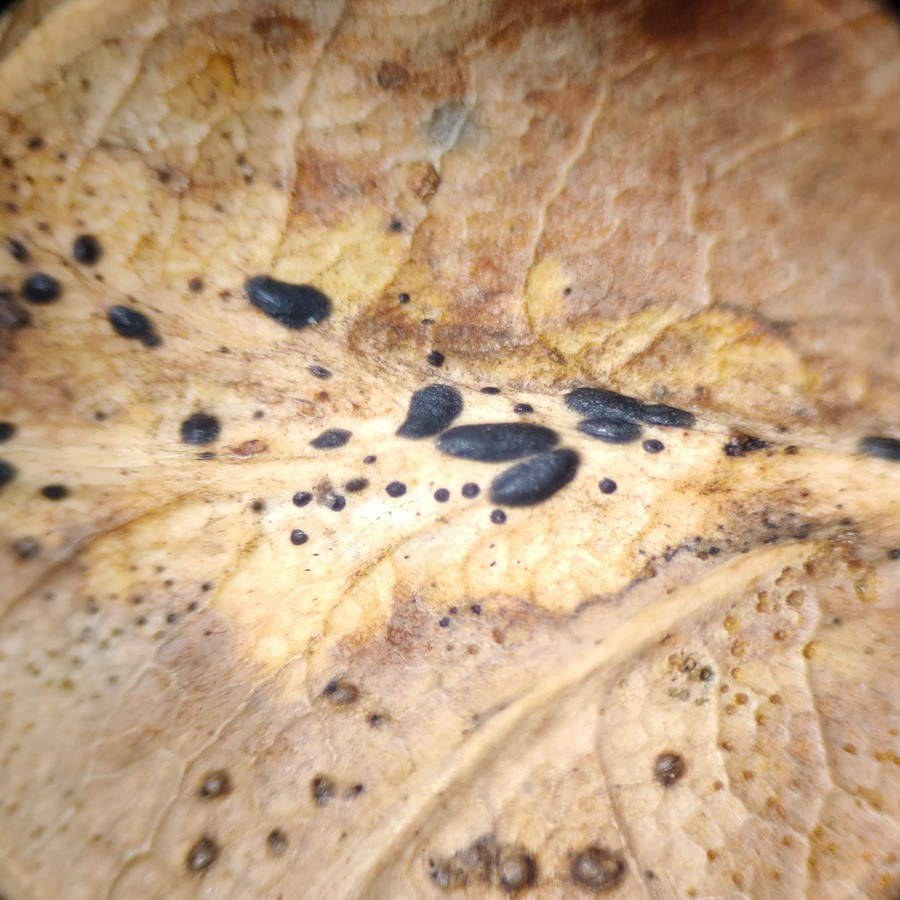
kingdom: Fungi
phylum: Ascomycota
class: Leotiomycetes
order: Rhytismatales
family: Rhytismataceae
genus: Lophodermium
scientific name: Lophodermium petiolicola
